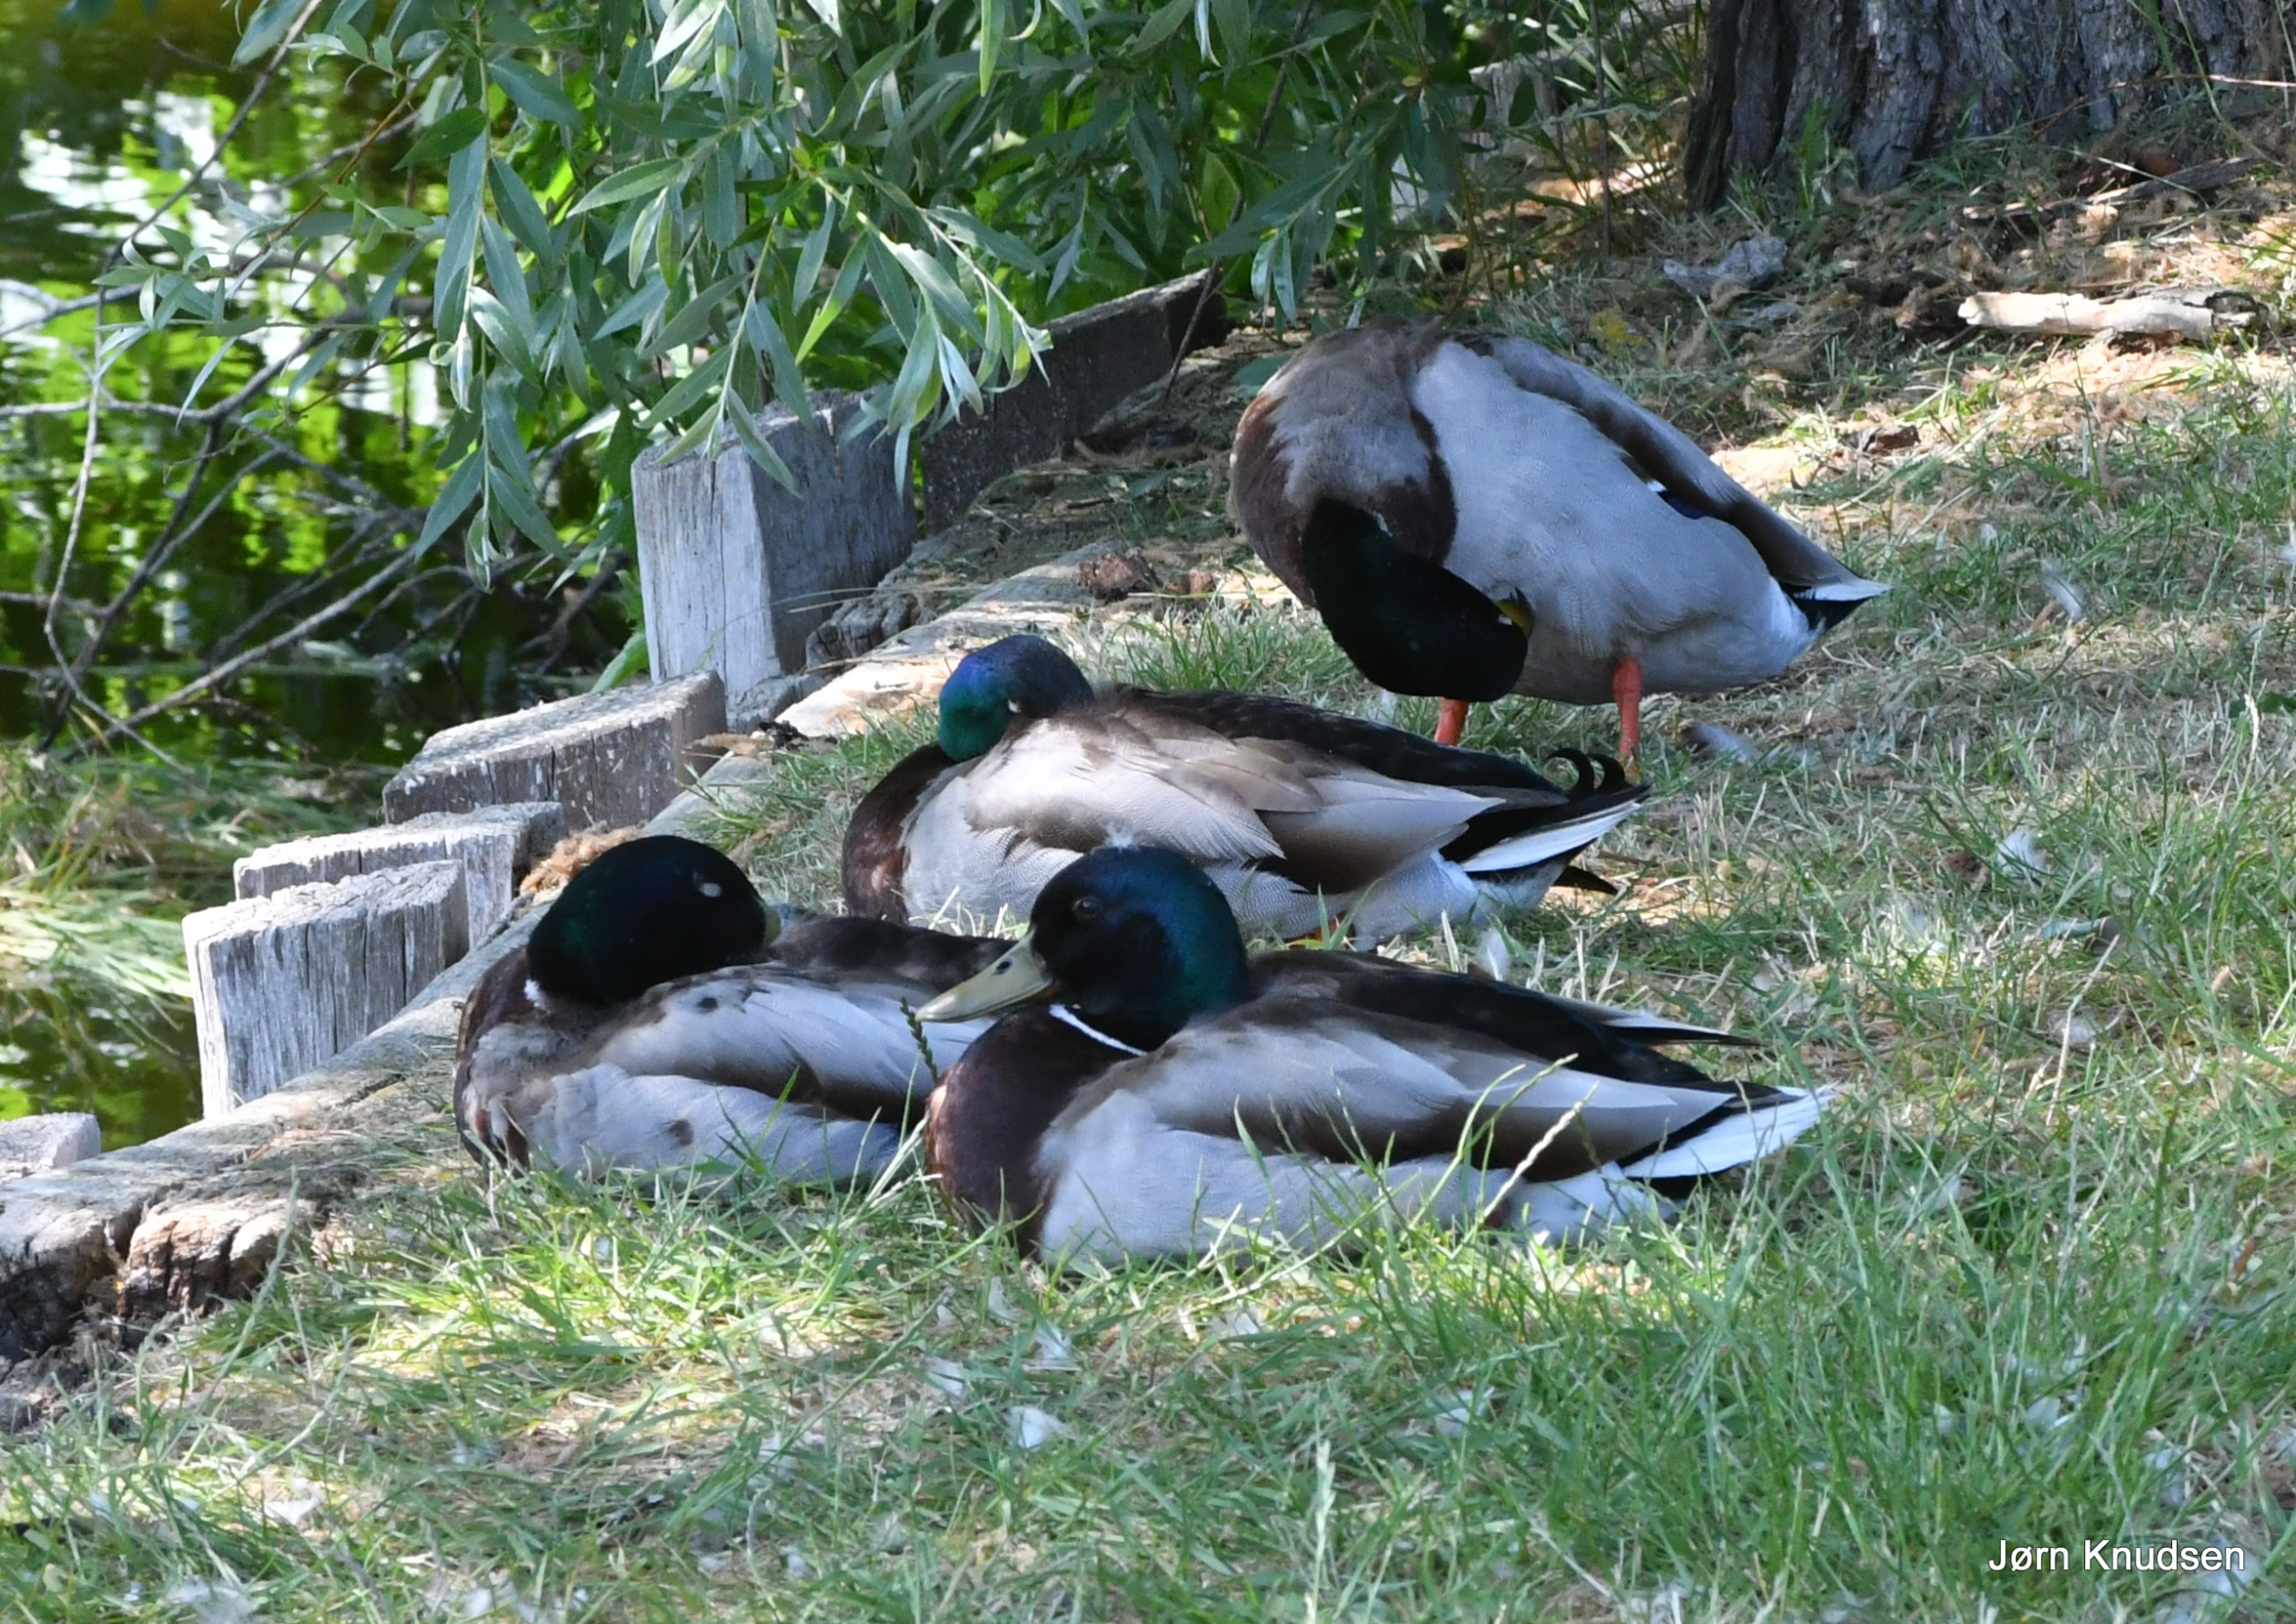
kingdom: Animalia
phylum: Chordata
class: Aves
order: Anseriformes
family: Anatidae
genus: Anas
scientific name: Anas platyrhynchos
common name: Gråand
